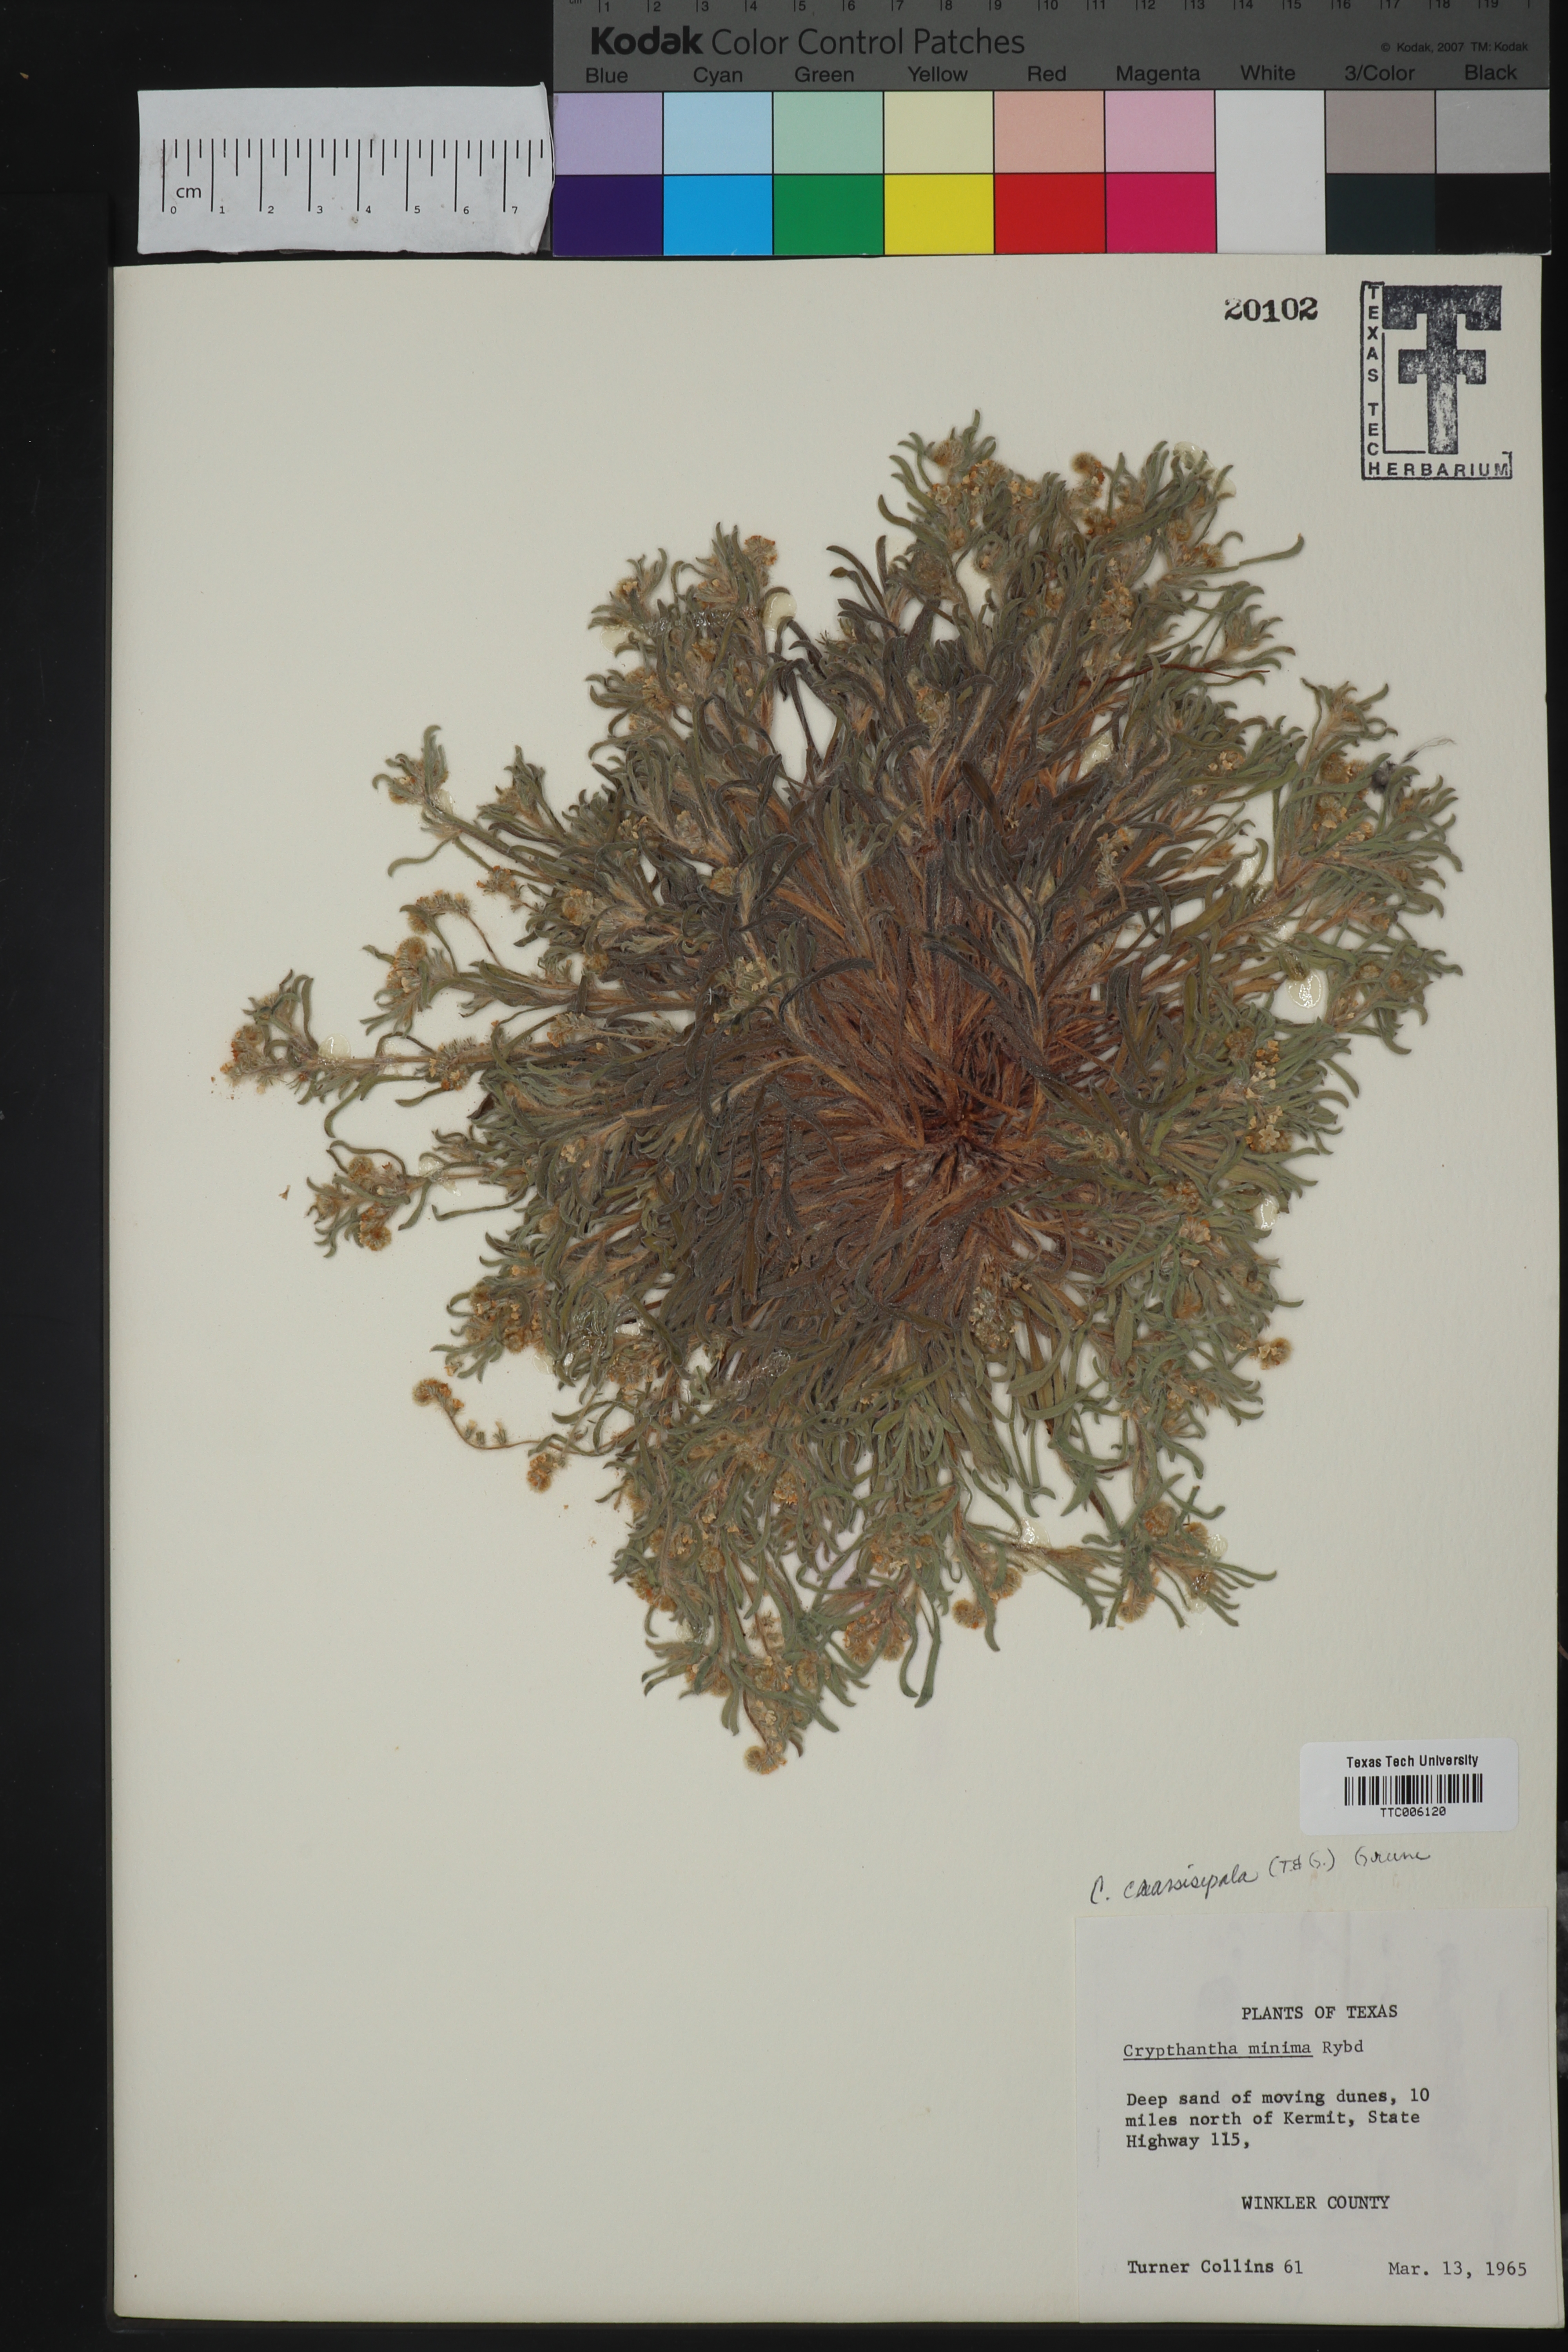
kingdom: Plantae
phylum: Tracheophyta
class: Magnoliopsida
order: Boraginales
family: Boraginaceae
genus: Cryptantha
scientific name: Cryptantha crassisepala
